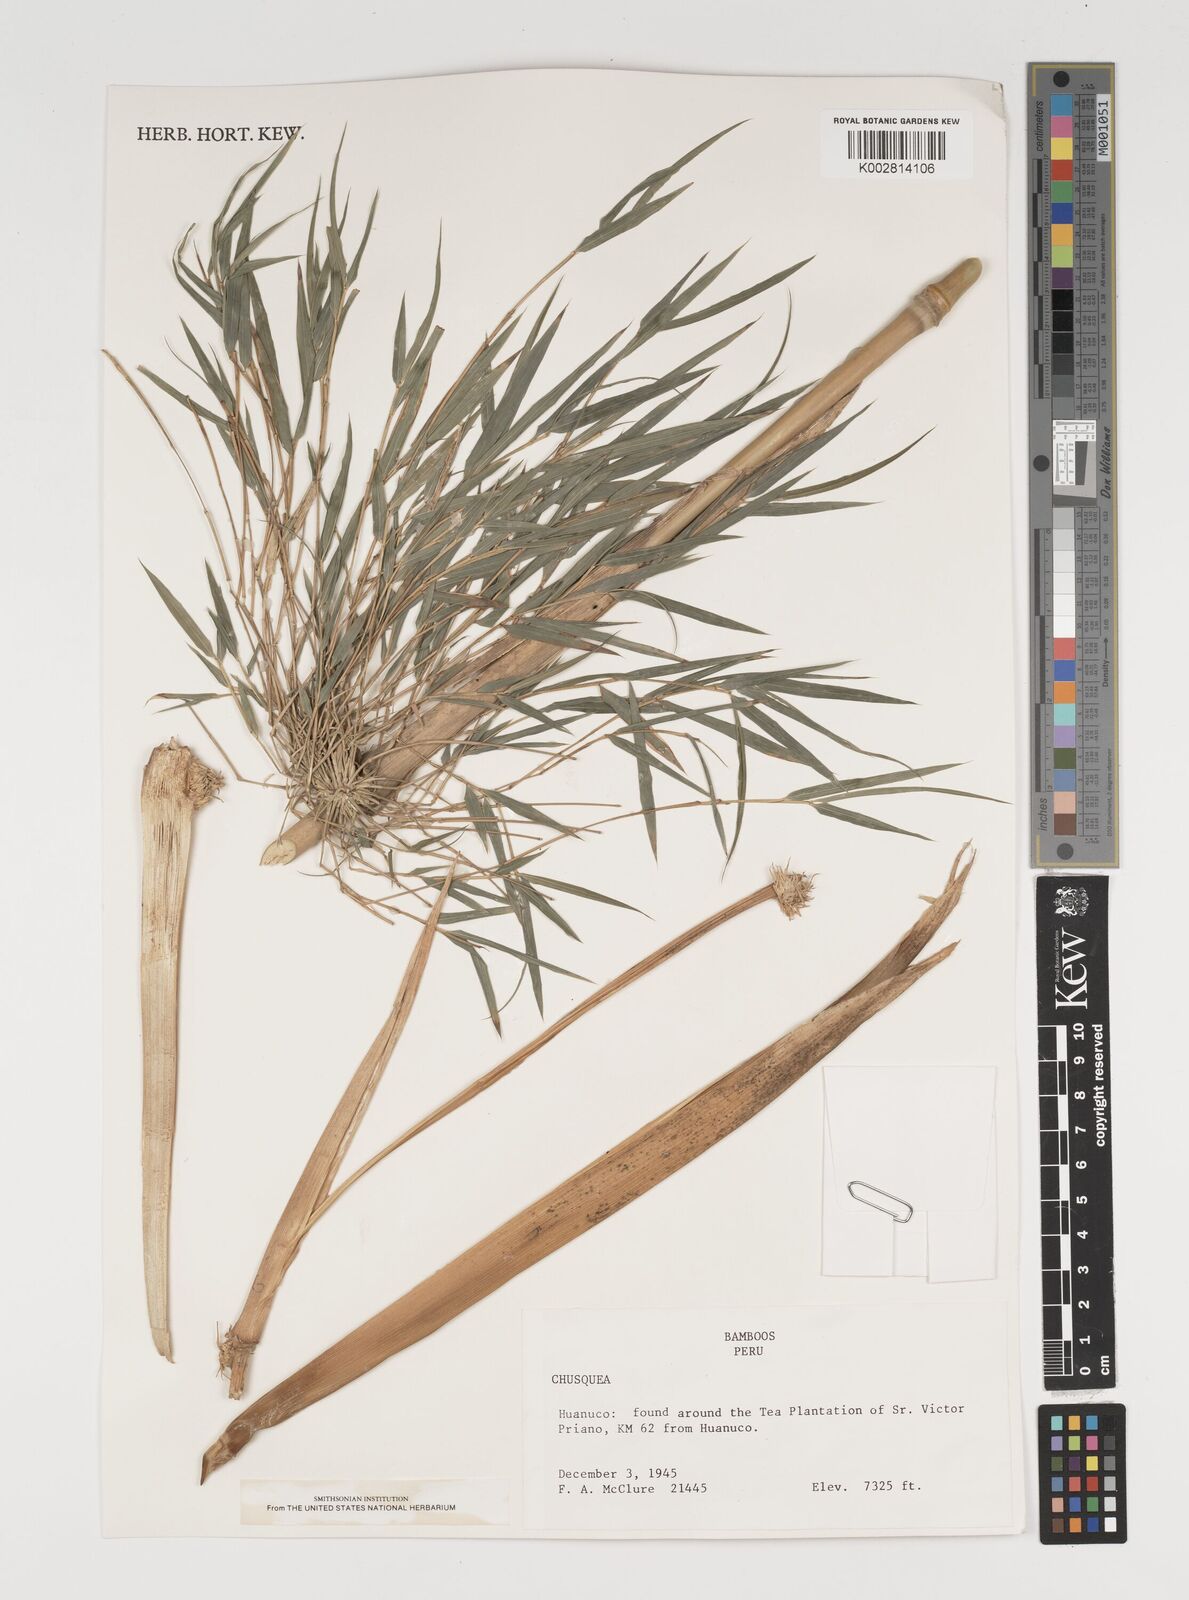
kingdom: Plantae
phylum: Tracheophyta
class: Liliopsida
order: Poales
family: Poaceae
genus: Chusquea
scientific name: Chusquea
